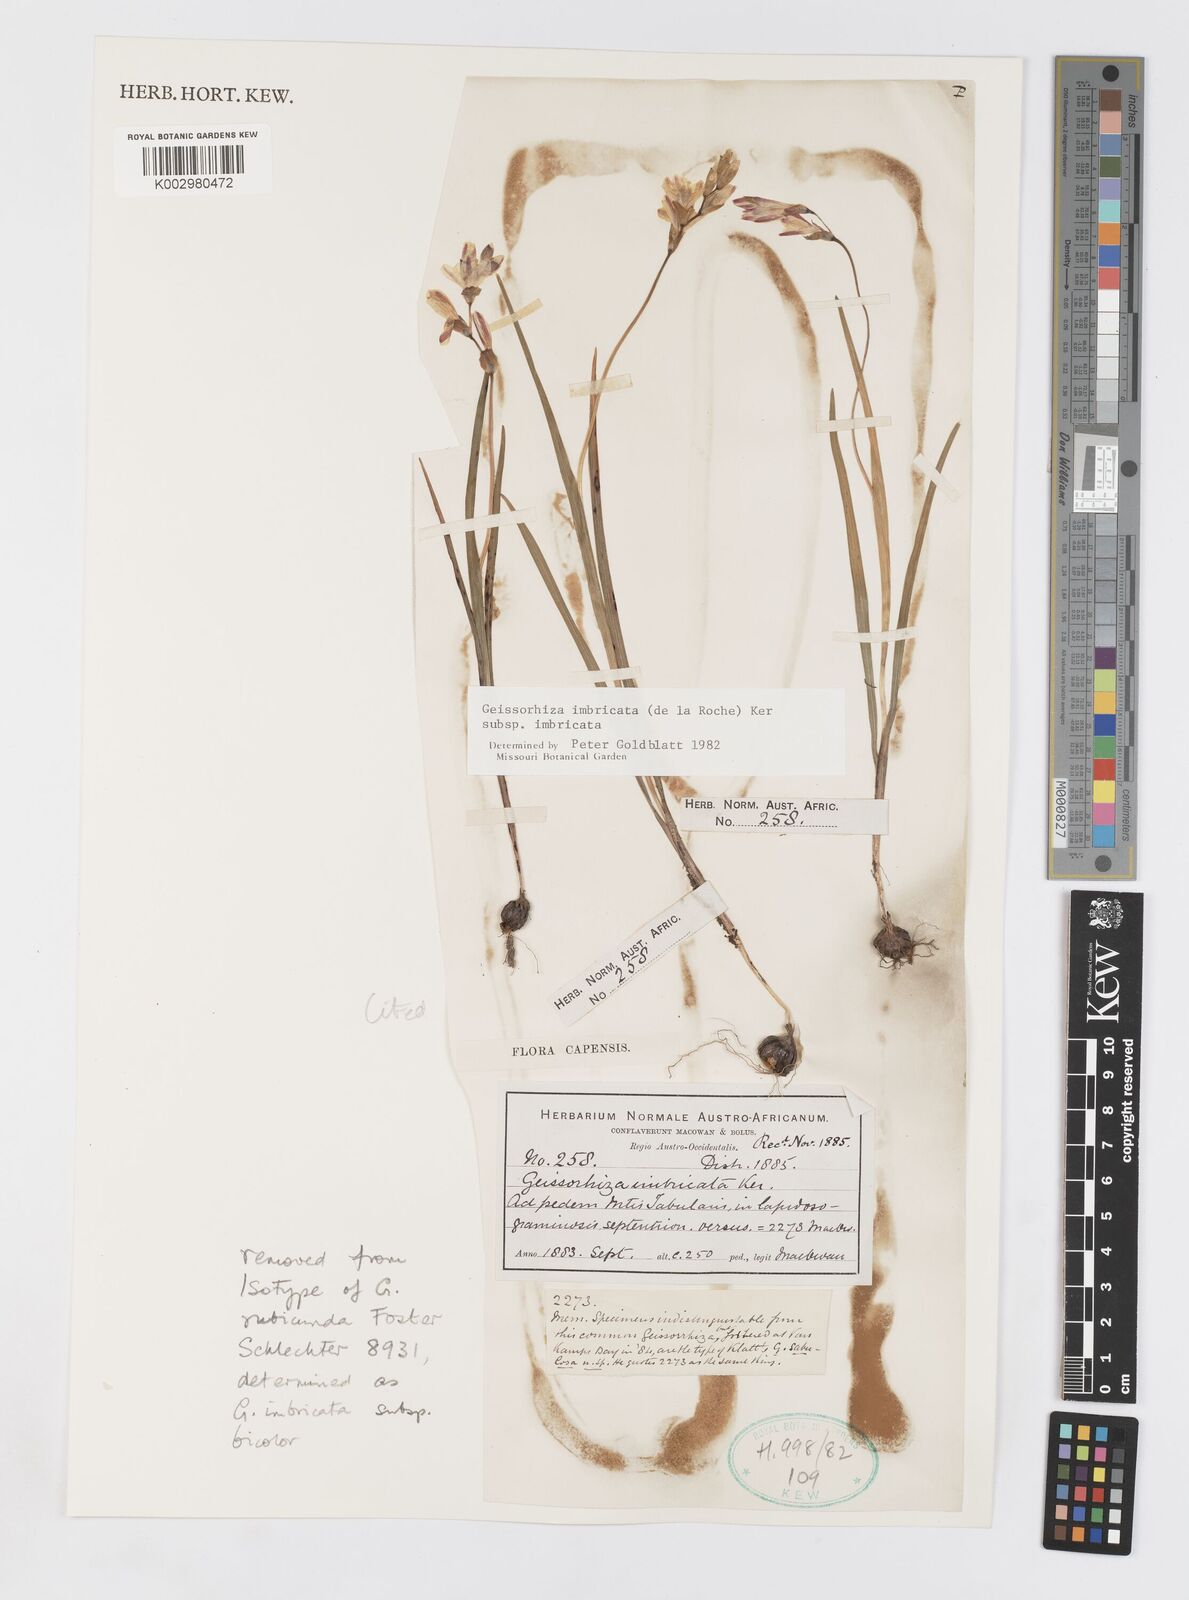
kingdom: Plantae
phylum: Tracheophyta
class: Liliopsida
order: Asparagales
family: Iridaceae
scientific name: Iridaceae
